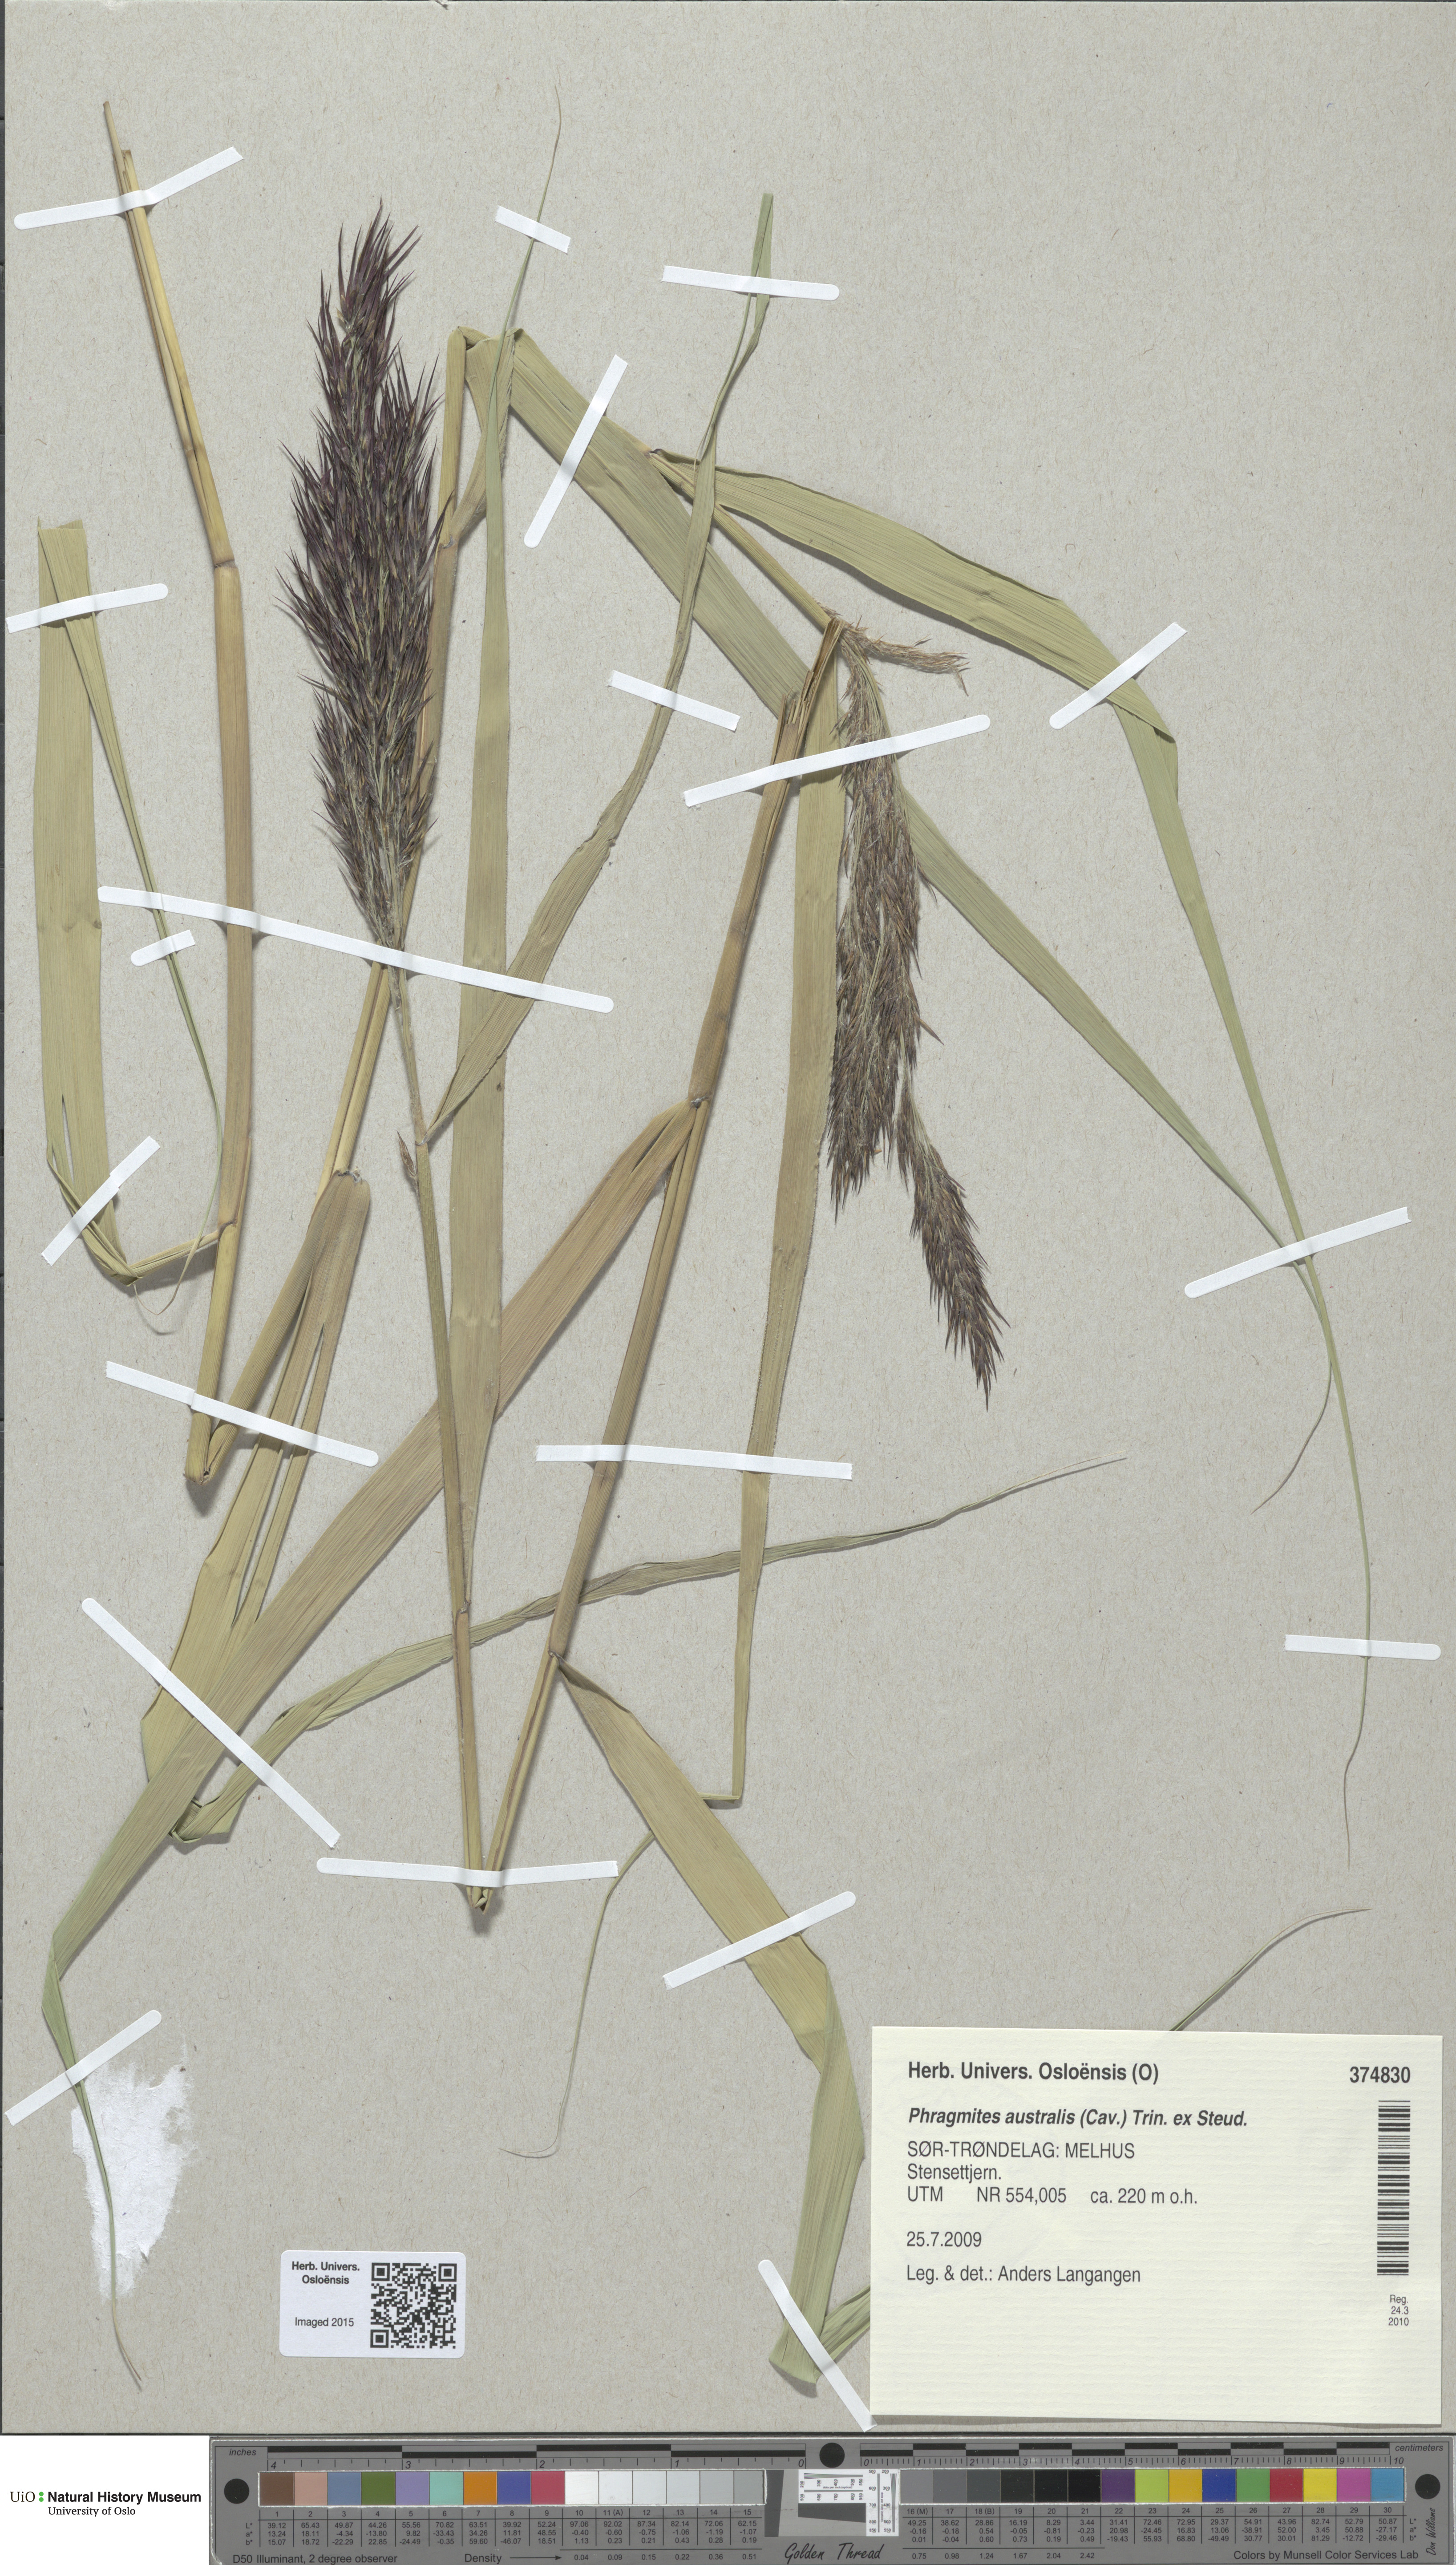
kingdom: Plantae
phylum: Tracheophyta
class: Liliopsida
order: Poales
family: Poaceae
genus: Phragmites
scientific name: Phragmites australis
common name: Common reed
